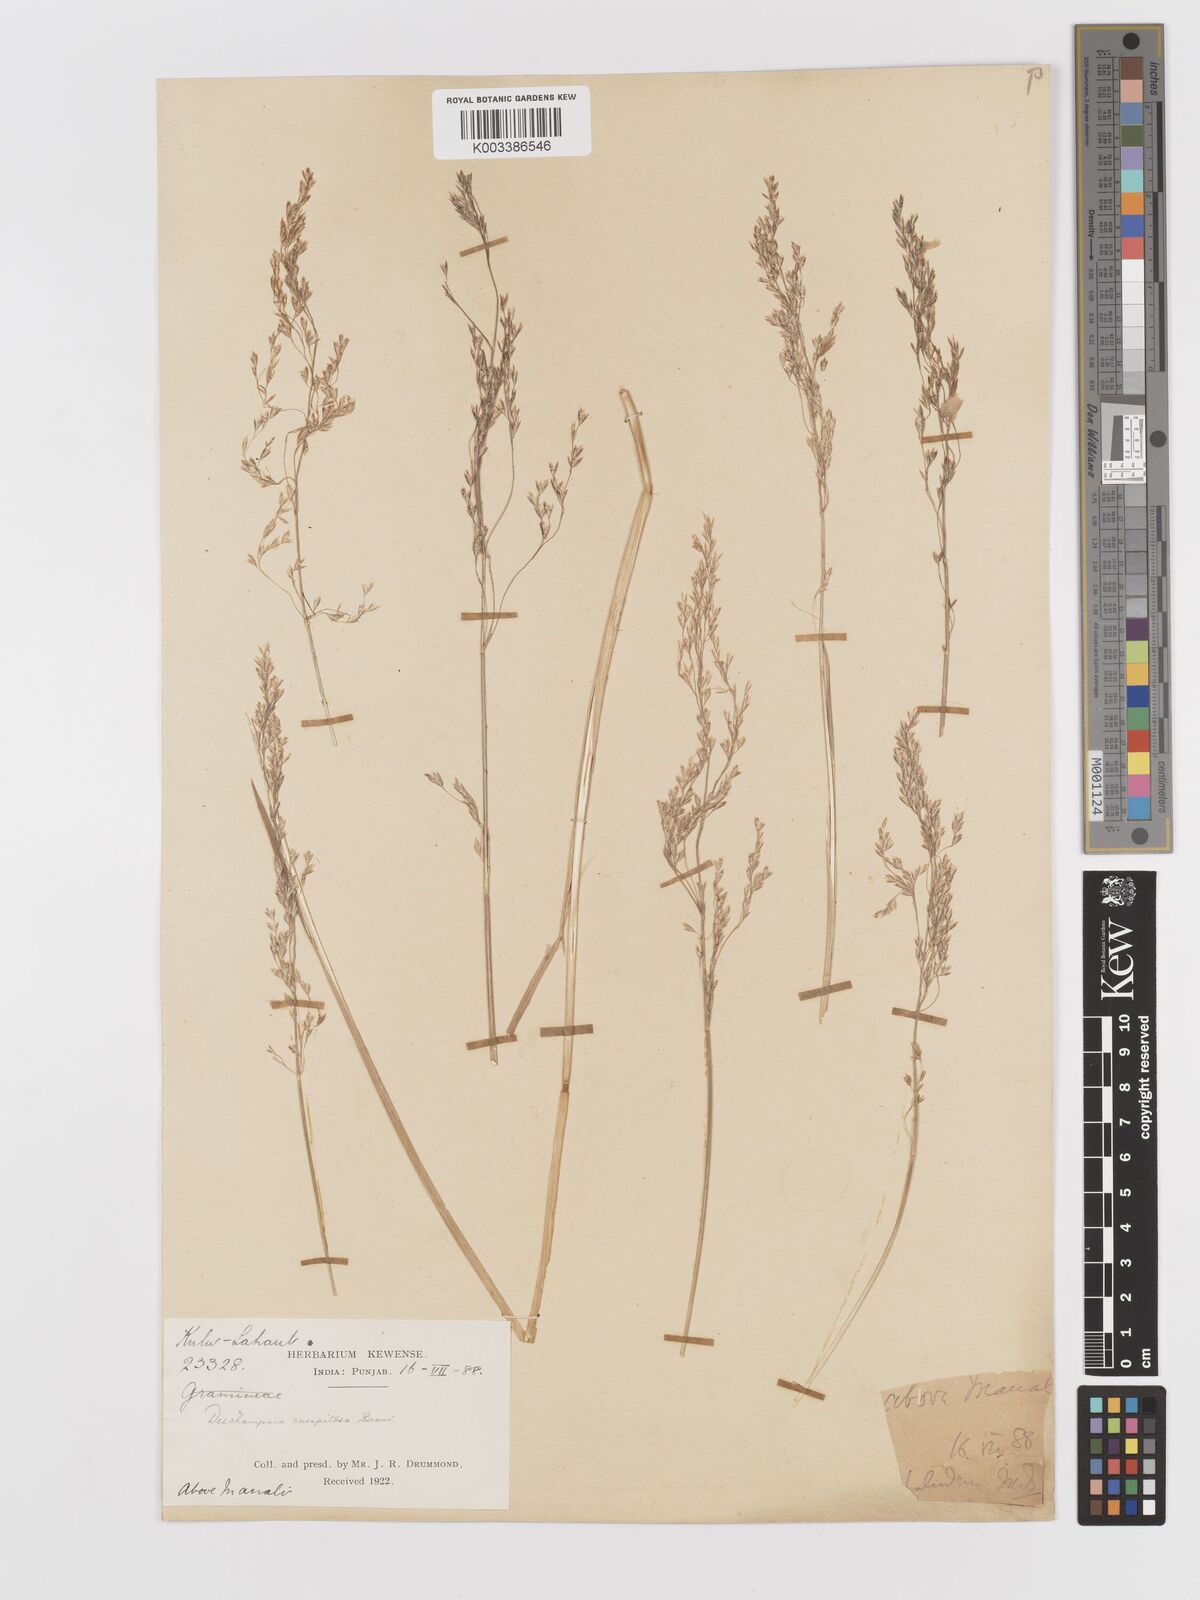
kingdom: Plantae
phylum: Tracheophyta
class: Liliopsida
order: Poales
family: Poaceae
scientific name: Poaceae
